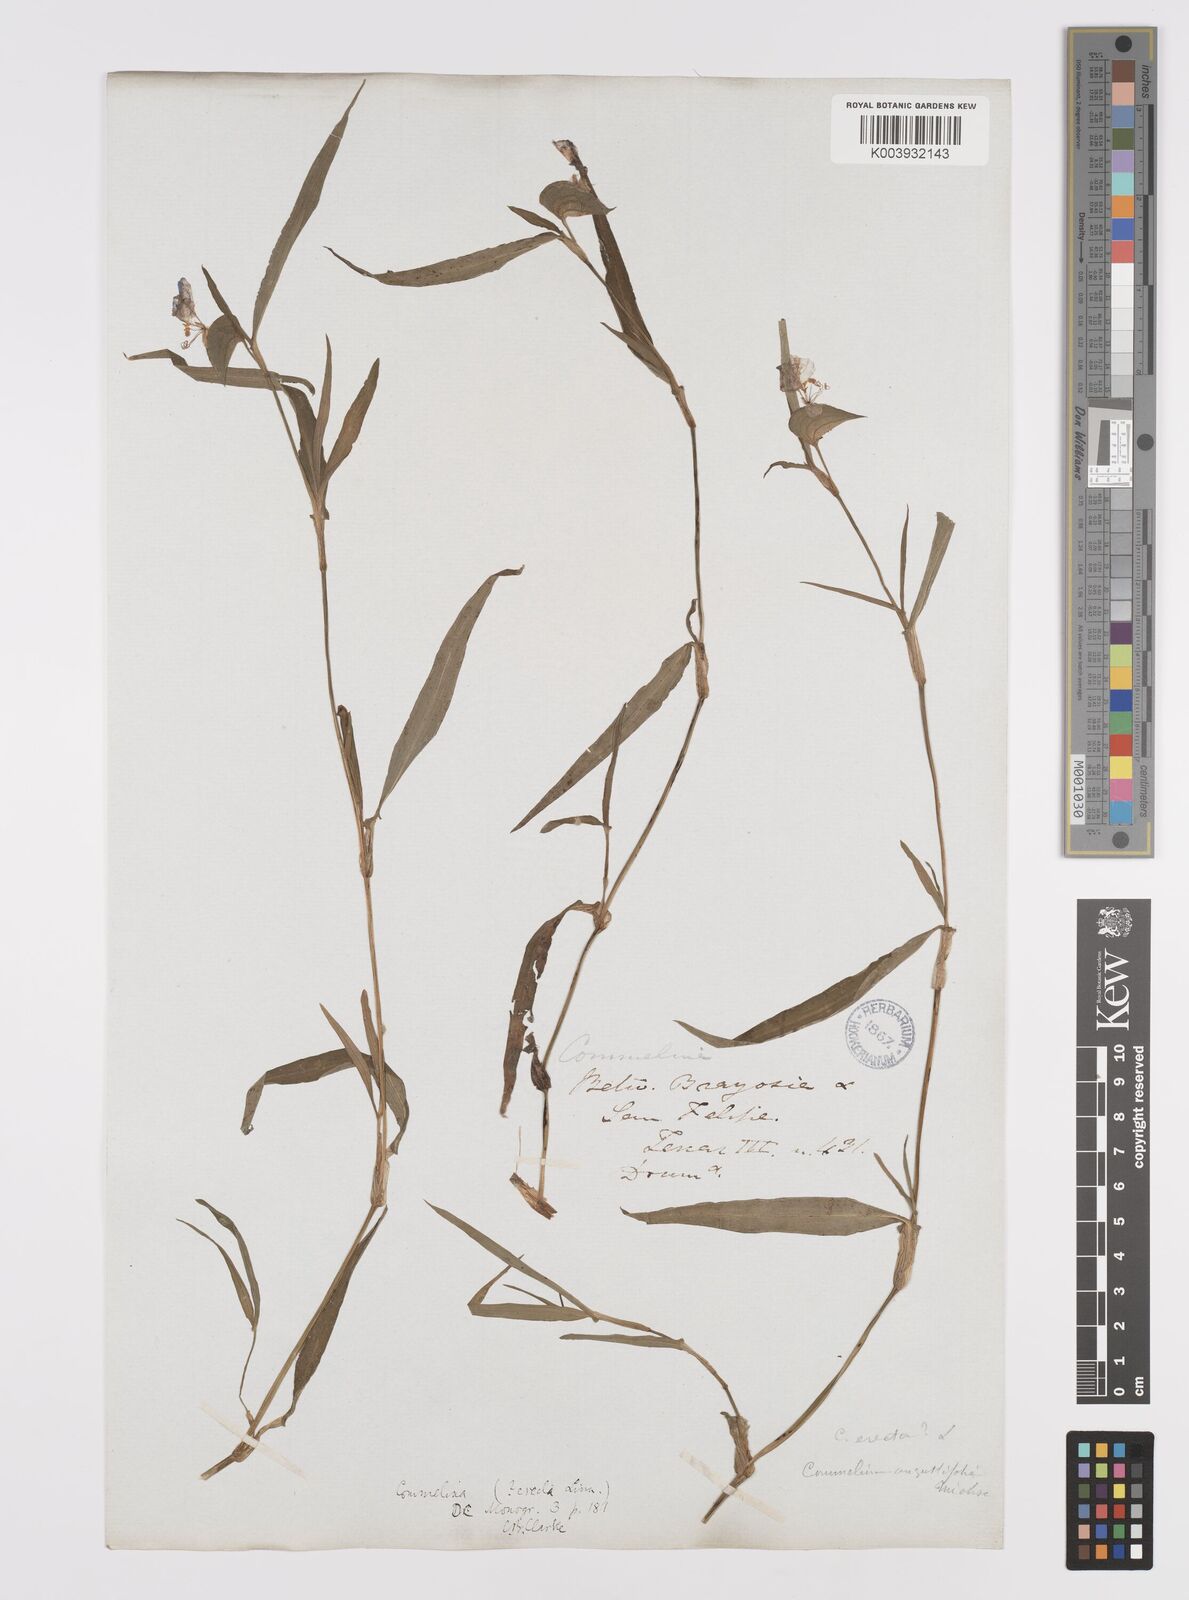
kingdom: Plantae
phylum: Tracheophyta
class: Liliopsida
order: Commelinales
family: Commelinaceae
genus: Commelina
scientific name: Commelina erecta
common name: Blousel blommetjie
